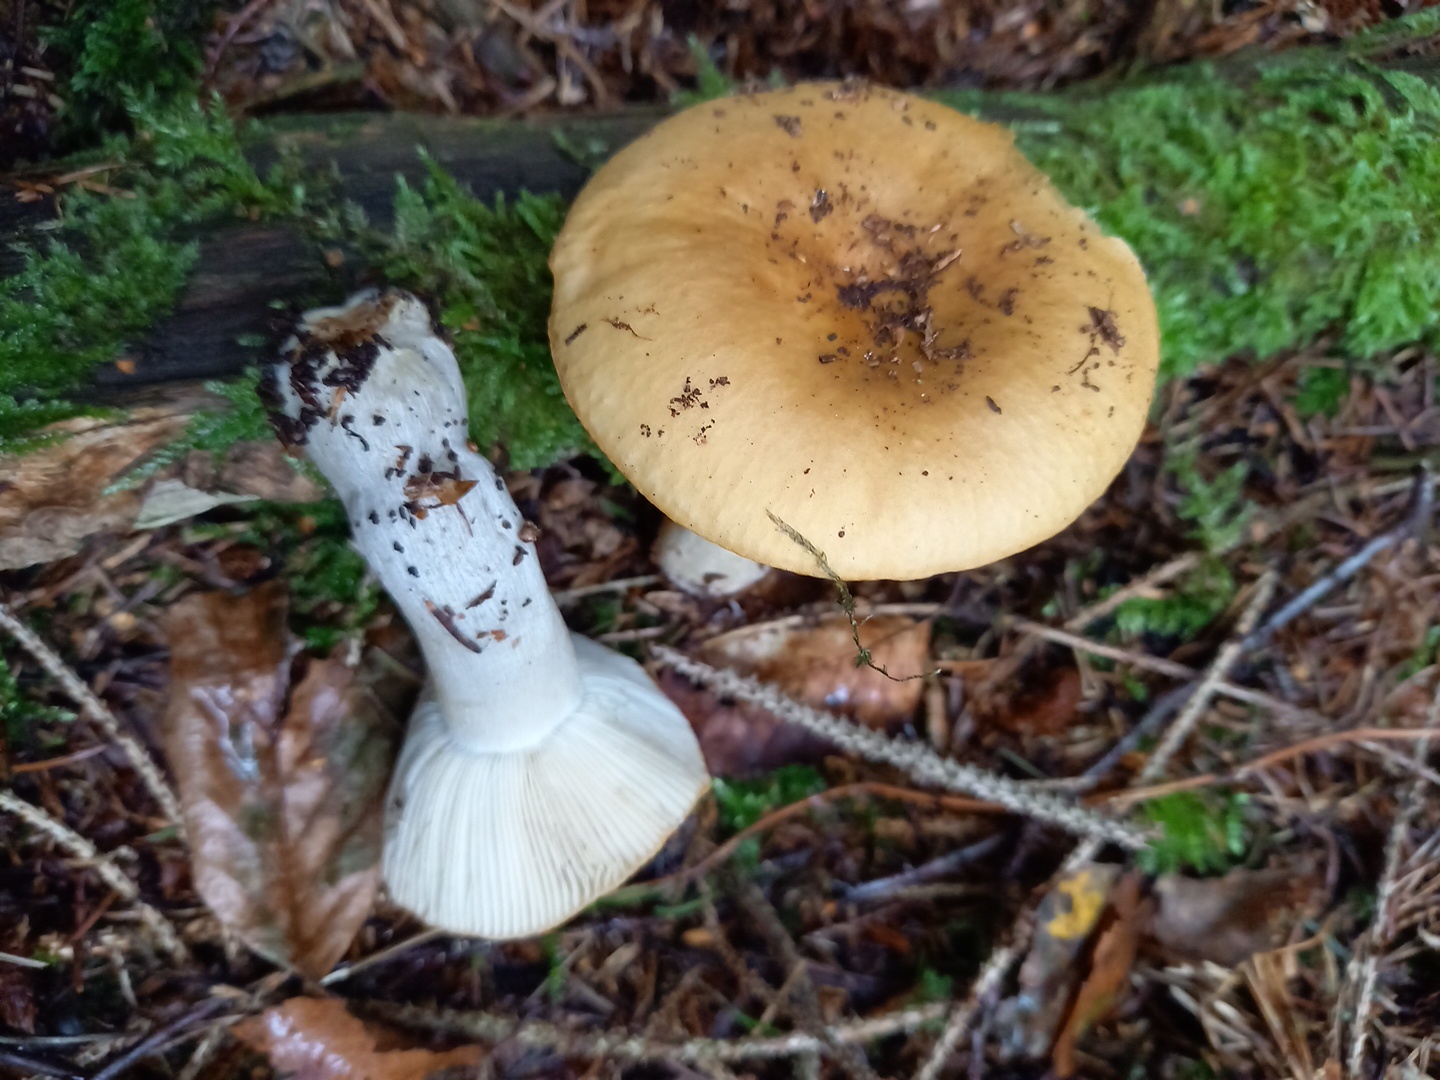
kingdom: Fungi
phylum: Basidiomycota
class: Agaricomycetes
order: Russulales
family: Russulaceae
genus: Russula
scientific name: Russula ochroleuca
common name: okkergul skørhat
